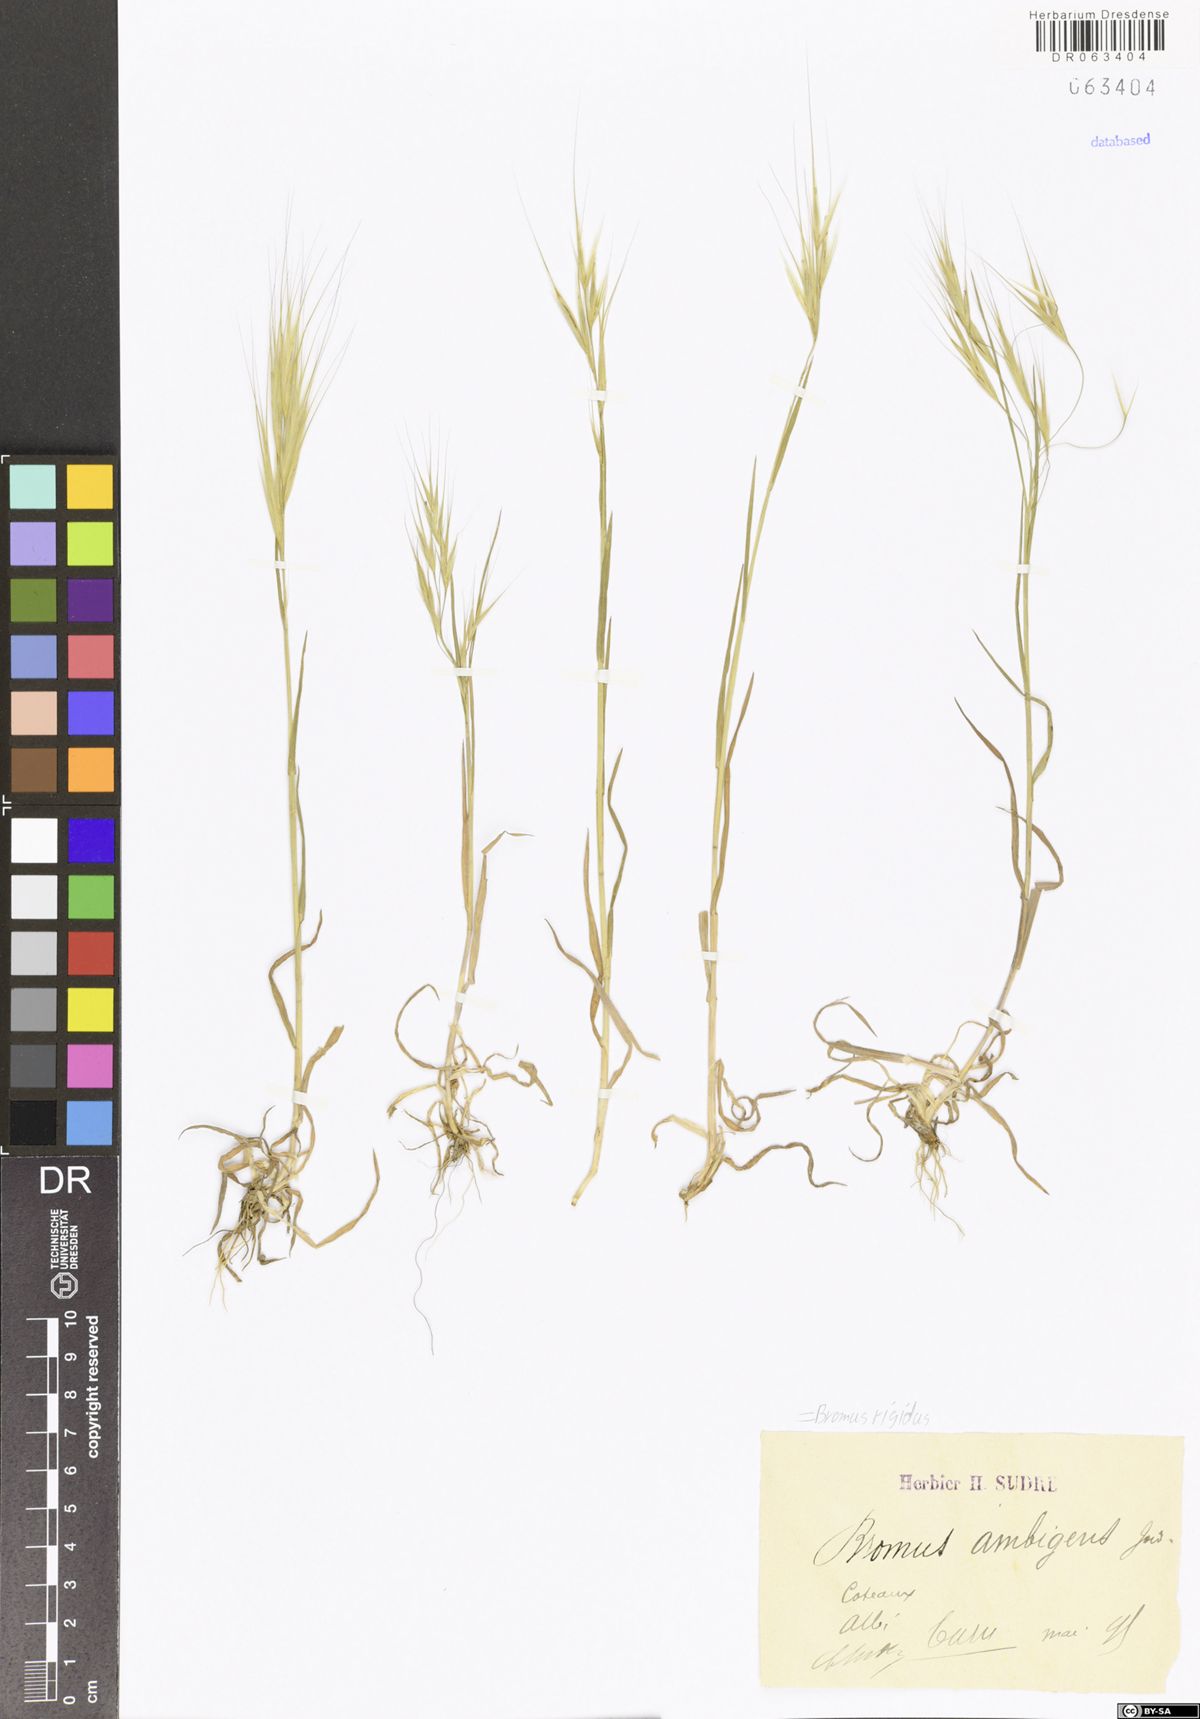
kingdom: Plantae
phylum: Tracheophyta
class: Liliopsida
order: Poales
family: Poaceae
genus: Bromus
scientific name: Bromus rigidus
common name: Ripgut brome
